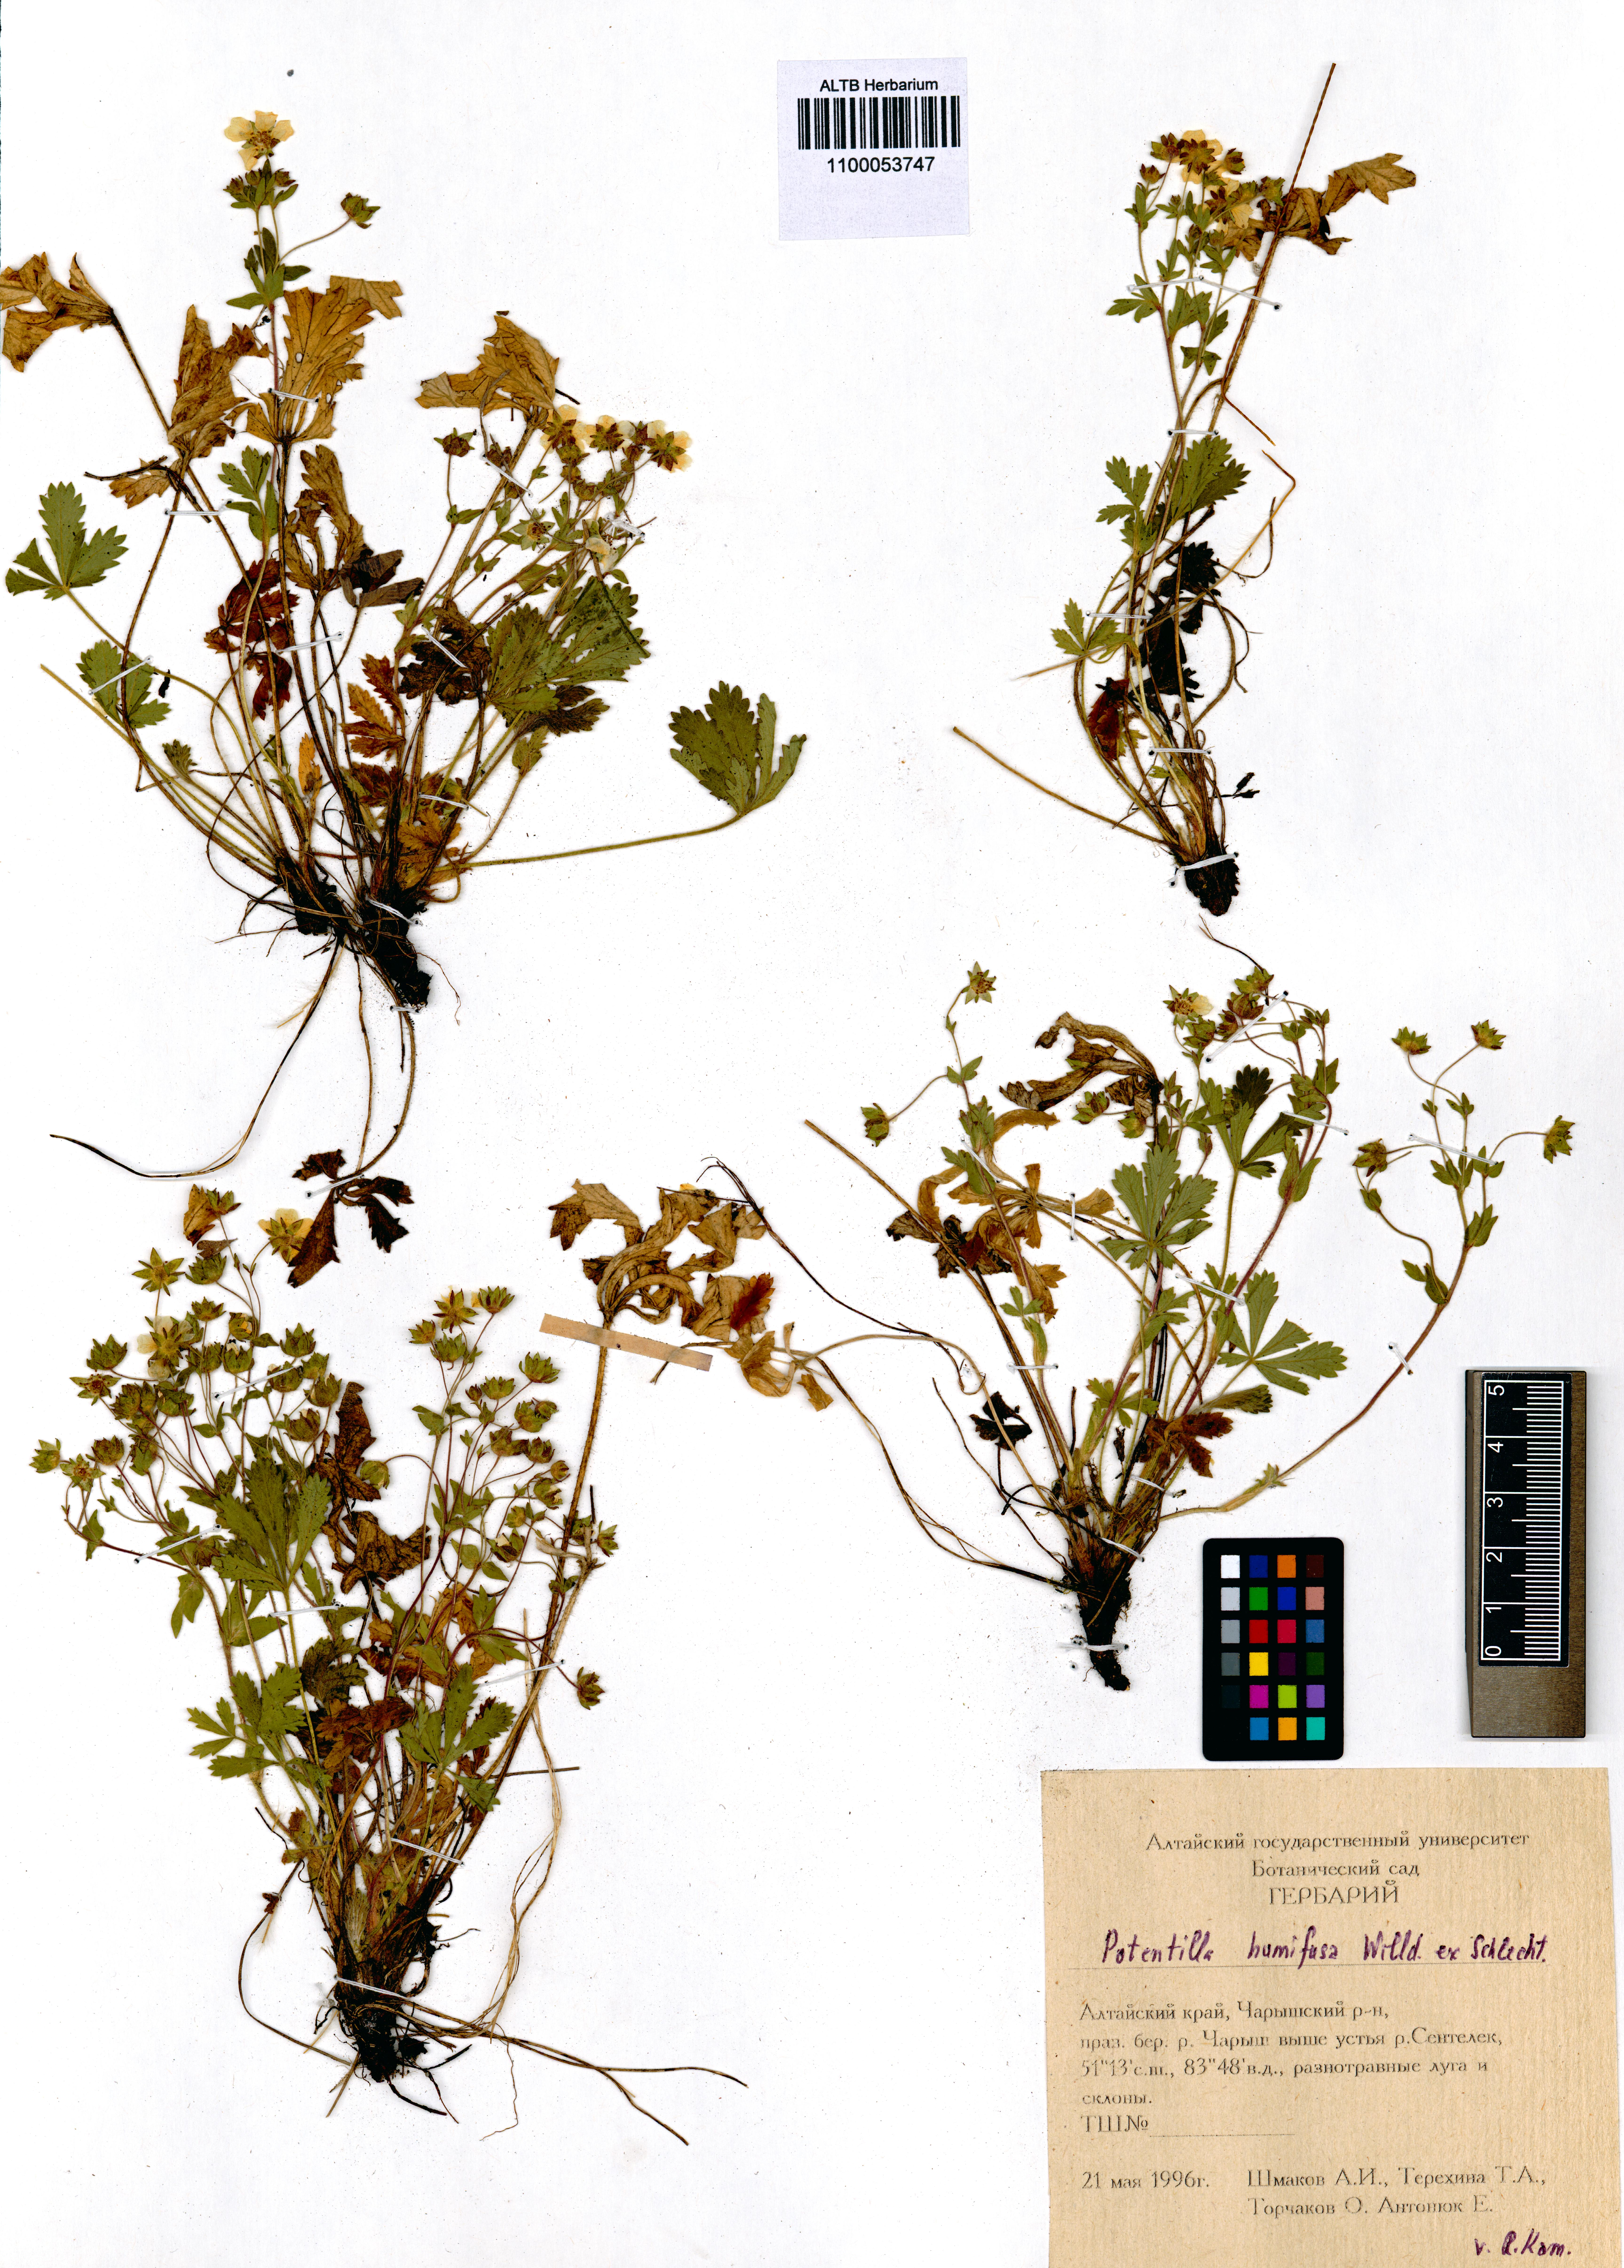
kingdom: Plantae
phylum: Tracheophyta
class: Magnoliopsida
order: Rosales
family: Rosaceae
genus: Potentilla
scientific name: Potentilla humifusa
